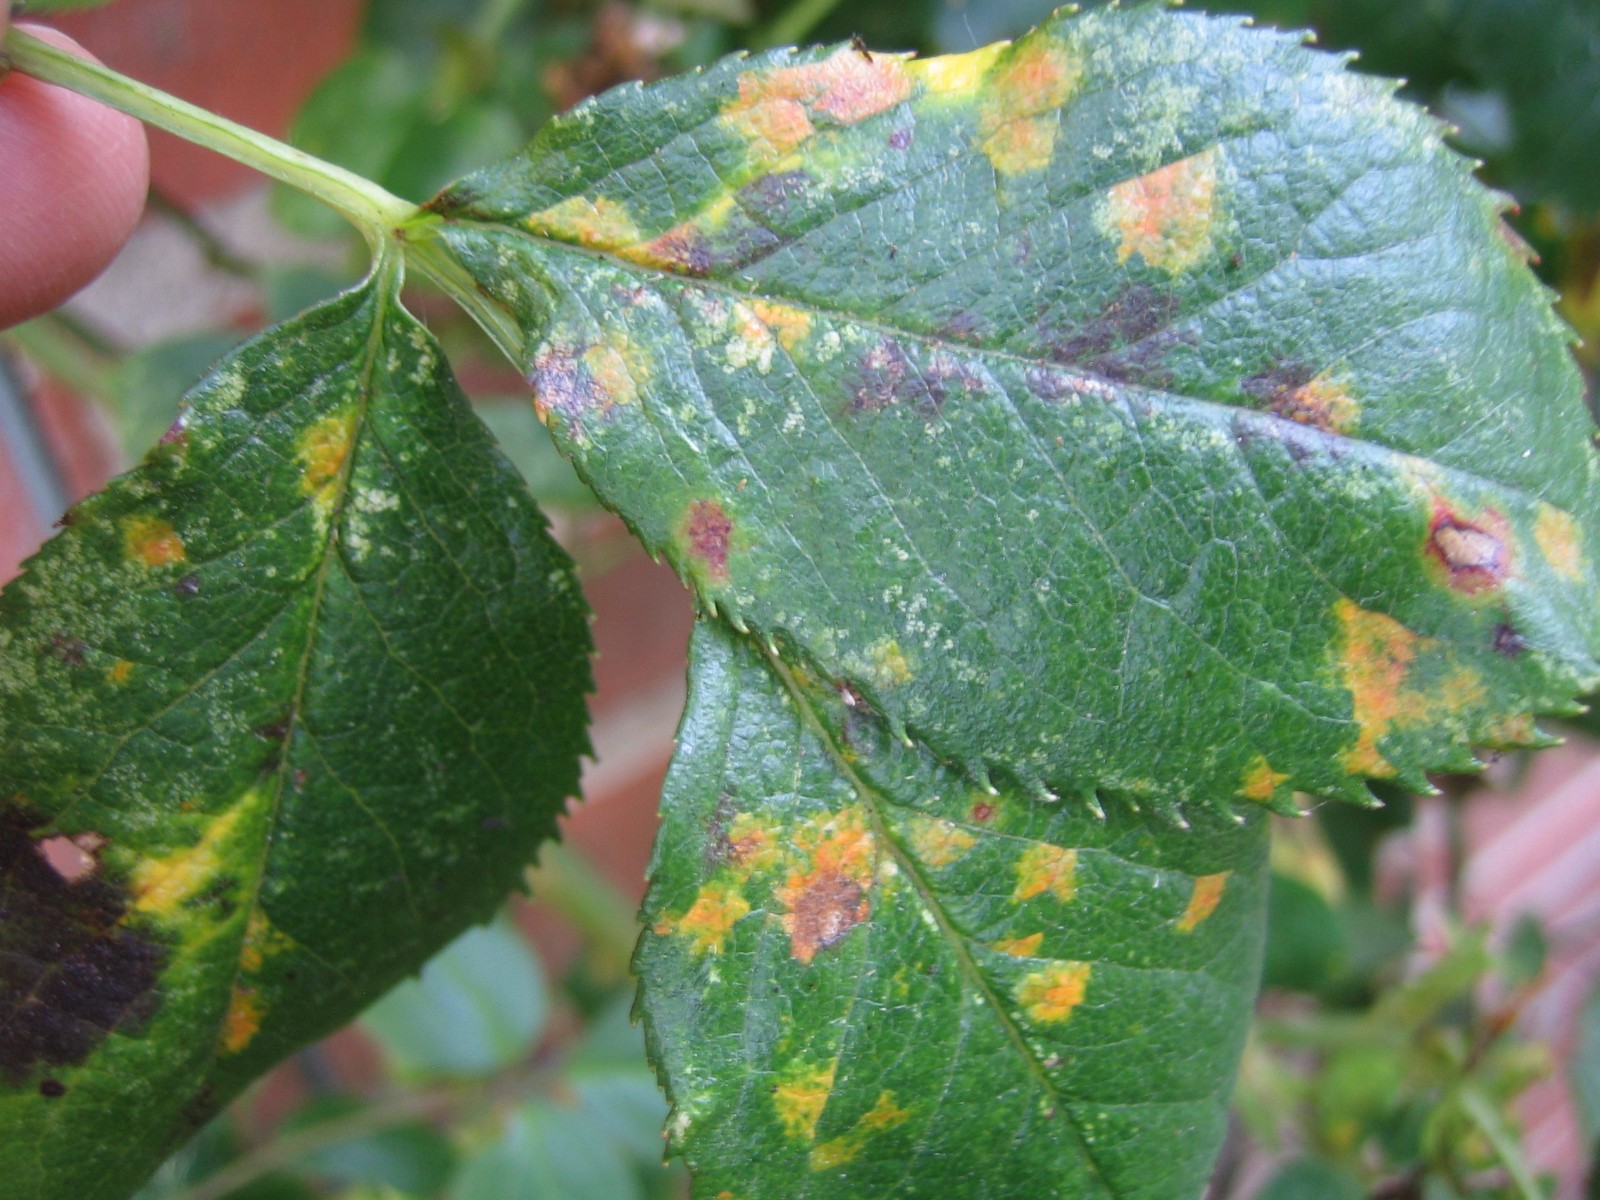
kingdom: Fungi
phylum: Basidiomycota
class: Pucciniomycetes
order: Pucciniales
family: Phragmidiaceae
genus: Phragmidium
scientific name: Phragmidium
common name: flercellerust
